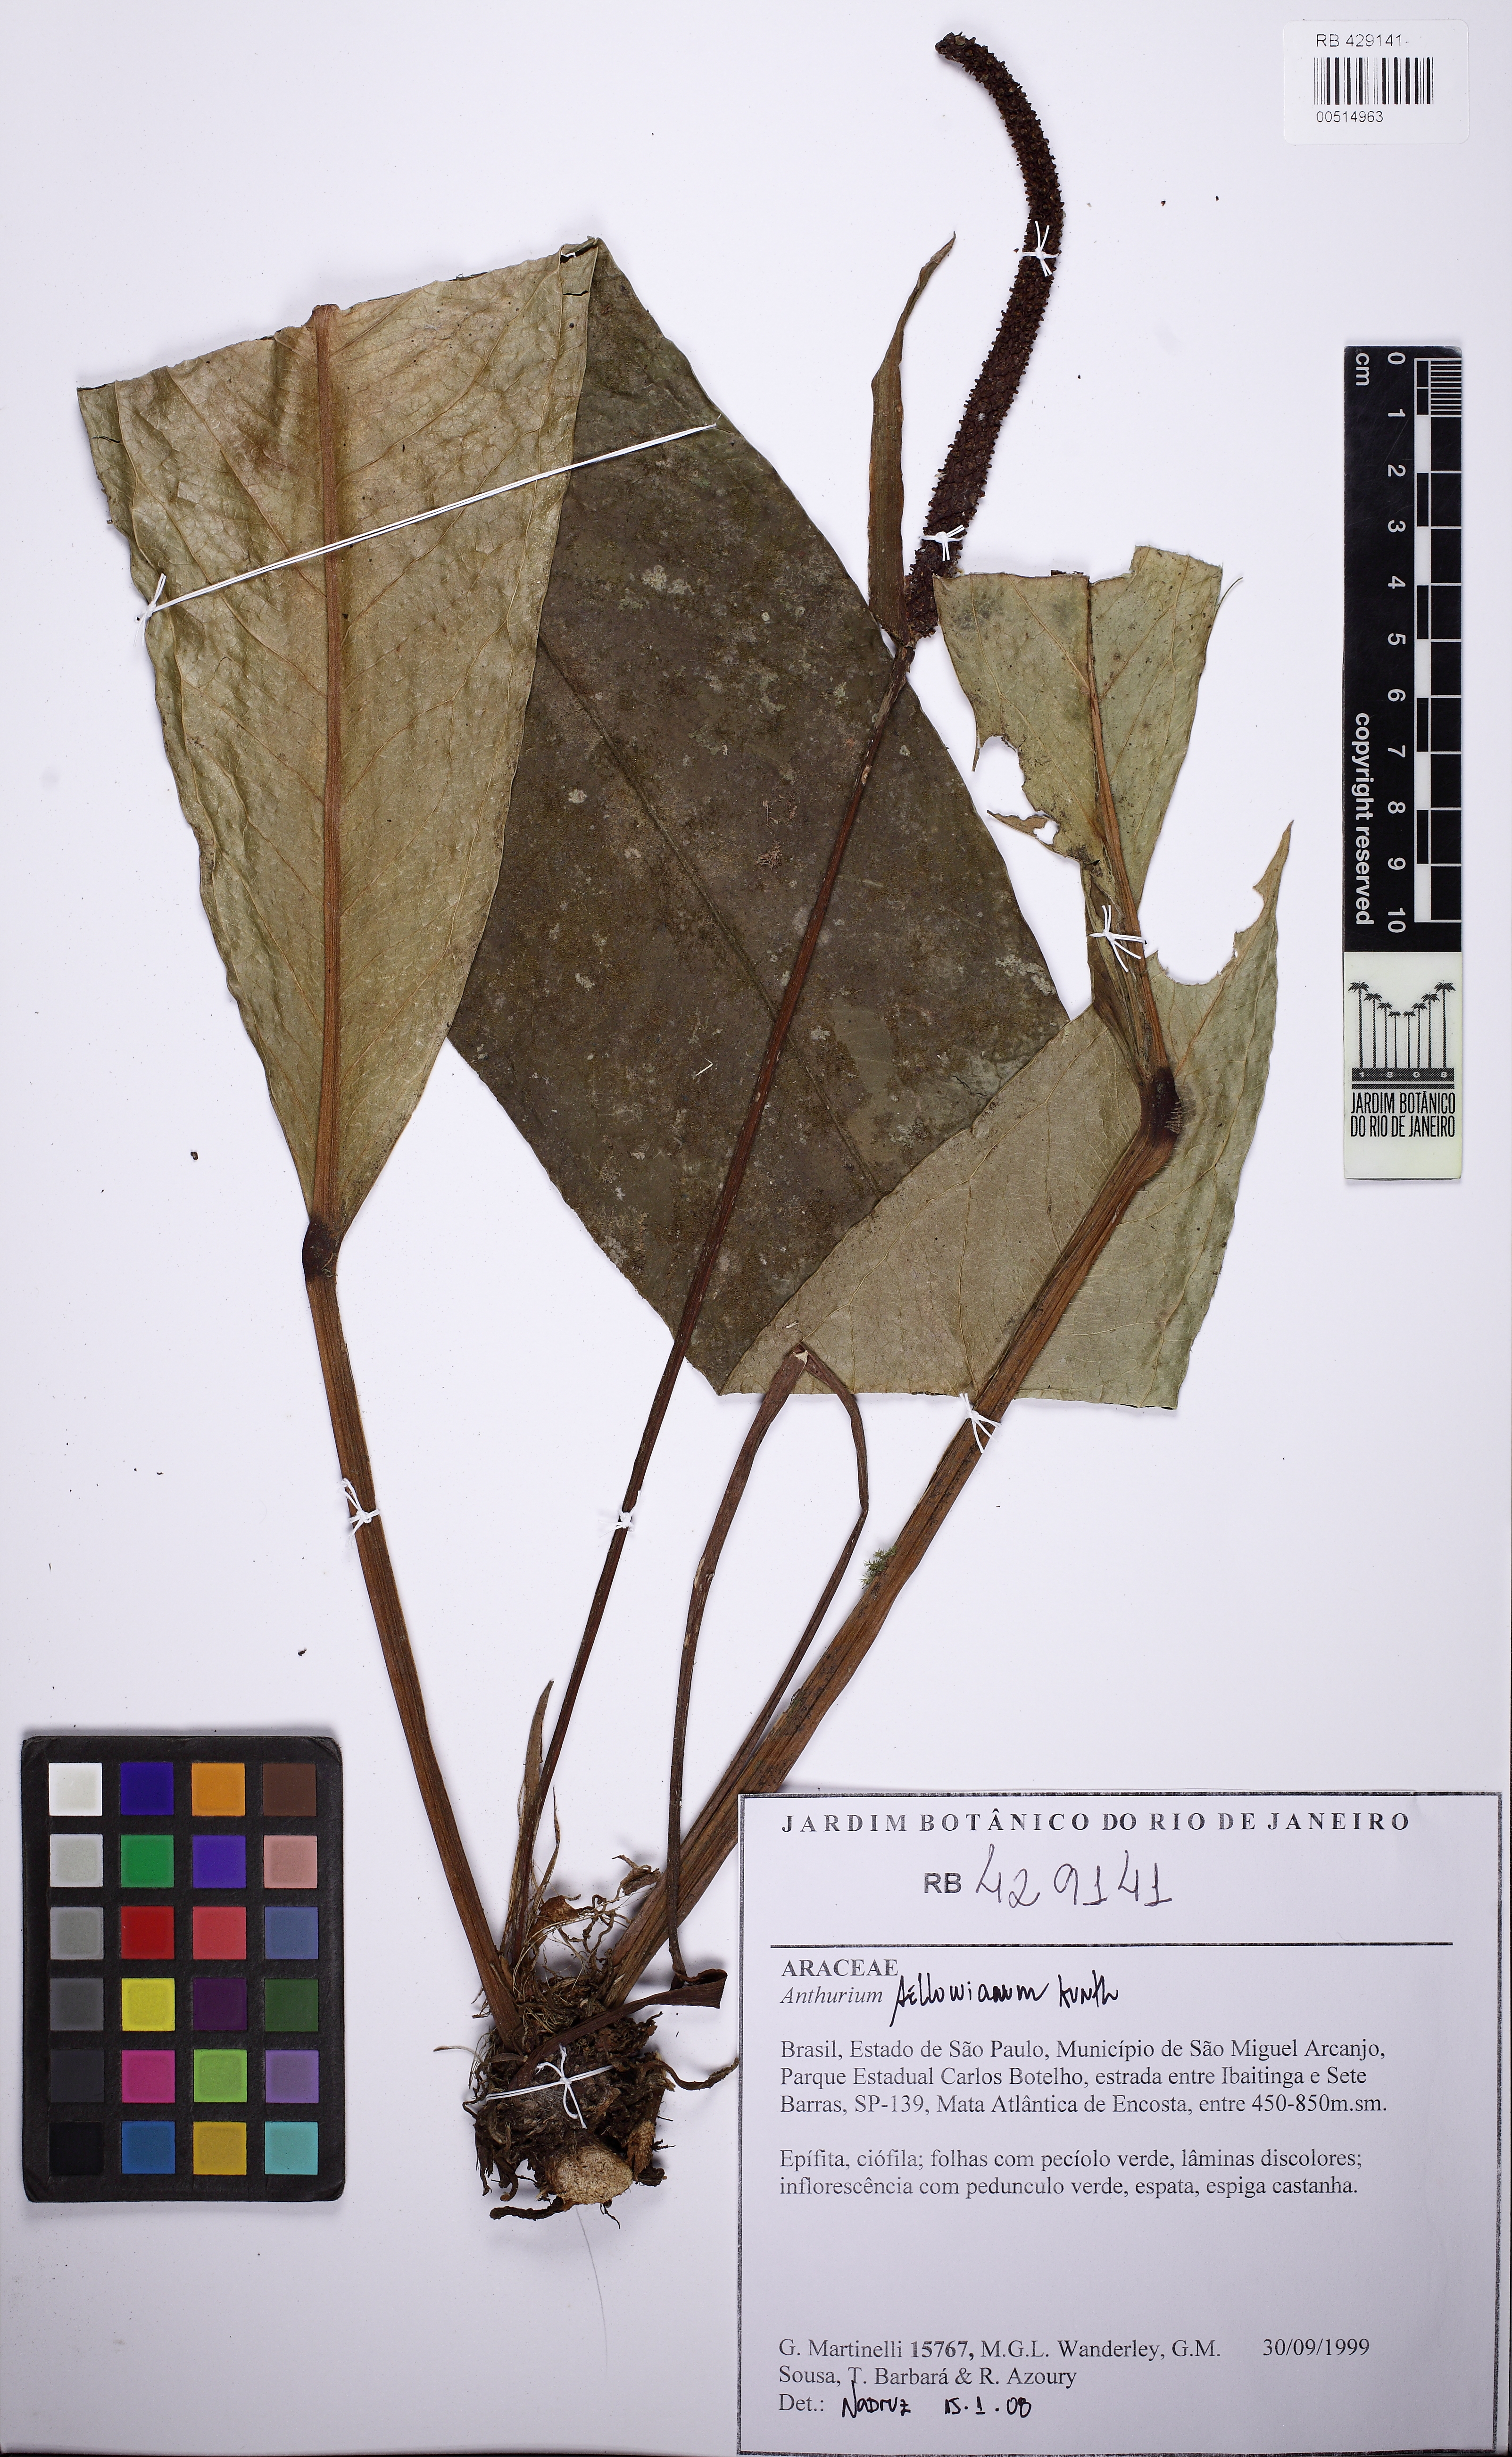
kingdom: Plantae
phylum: Tracheophyta
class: Liliopsida
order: Alismatales
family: Araceae
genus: Anthurium
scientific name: Anthurium sellowianum
